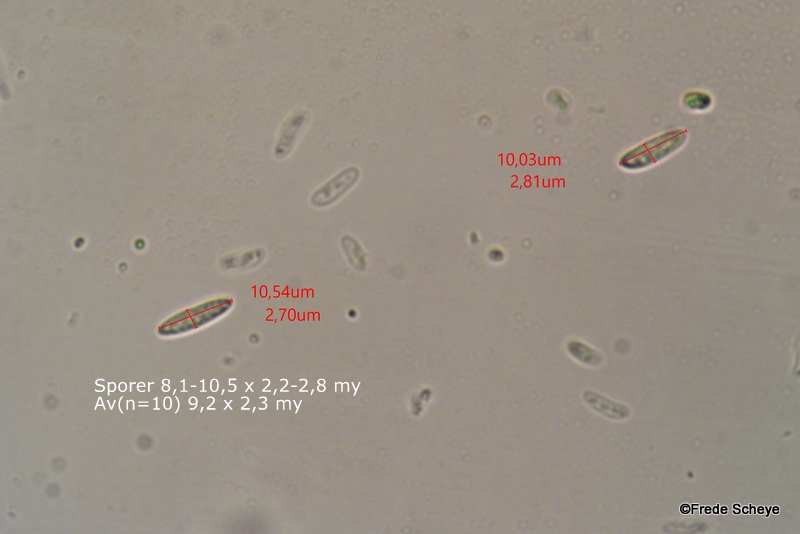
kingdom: Fungi
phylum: Ascomycota
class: Leotiomycetes
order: Helotiales
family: Mollisiaceae
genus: Mollisia
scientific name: Mollisia cinerea
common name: almindelig gråskive
